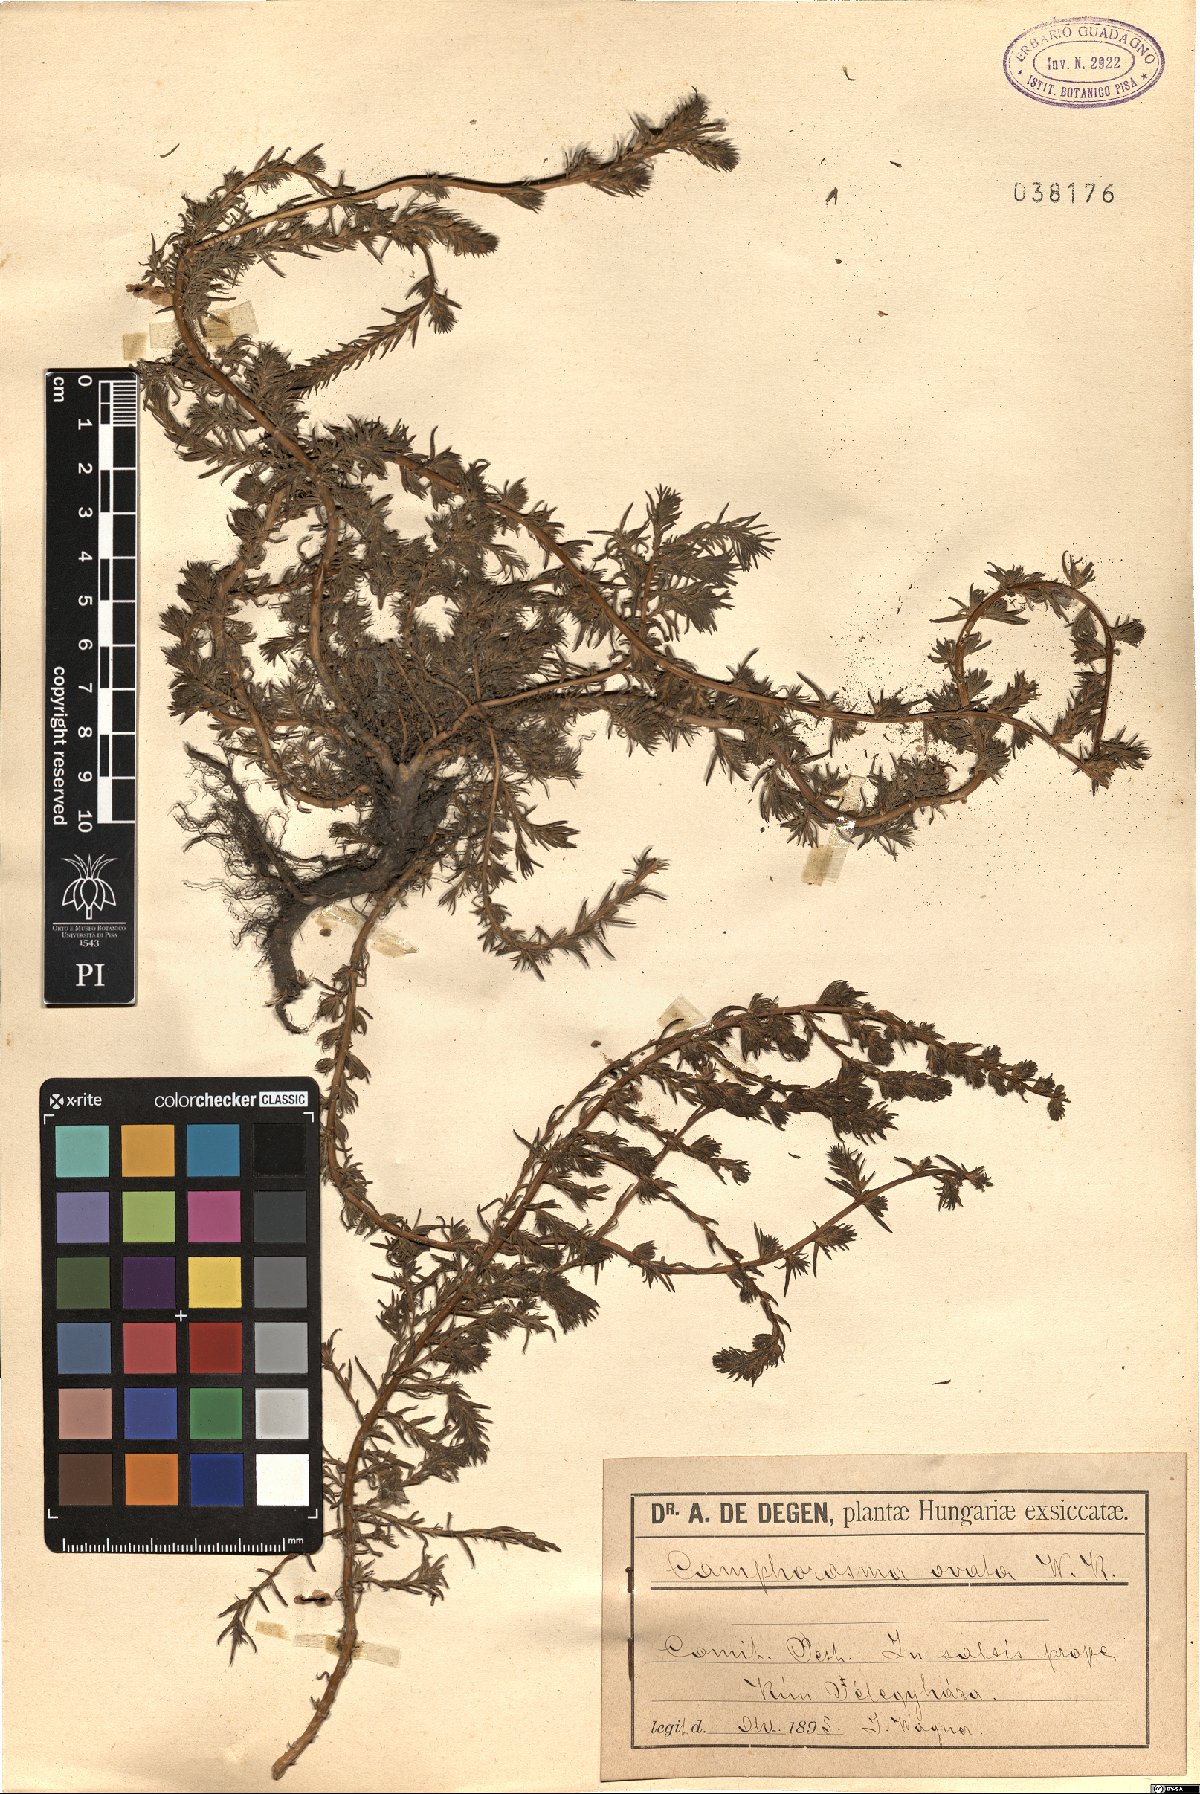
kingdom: Plantae
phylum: Tracheophyta
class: Magnoliopsida
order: Caryophyllales
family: Amaranthaceae
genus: Camphorosma
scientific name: Camphorosma annua
